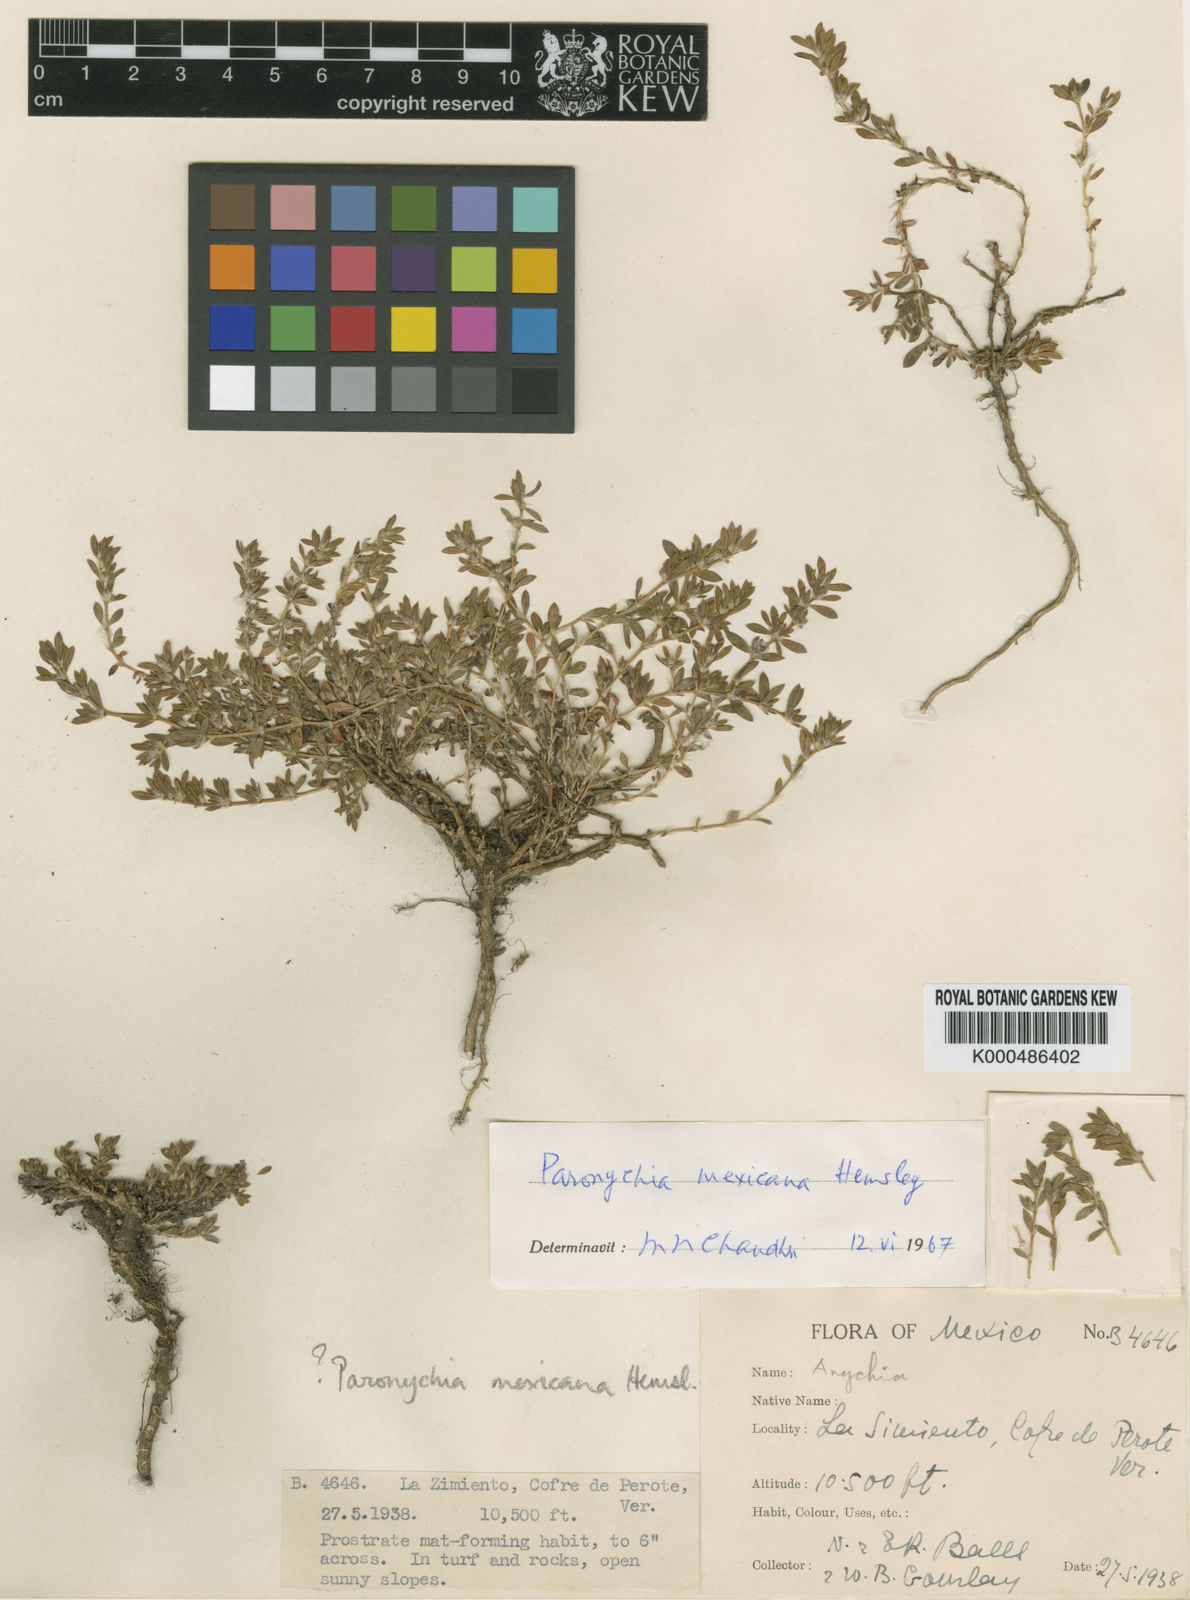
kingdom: Plantae
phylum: Tracheophyta
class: Magnoliopsida
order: Caryophyllales
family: Caryophyllaceae
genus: Paronychia
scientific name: Paronychia mexicana
